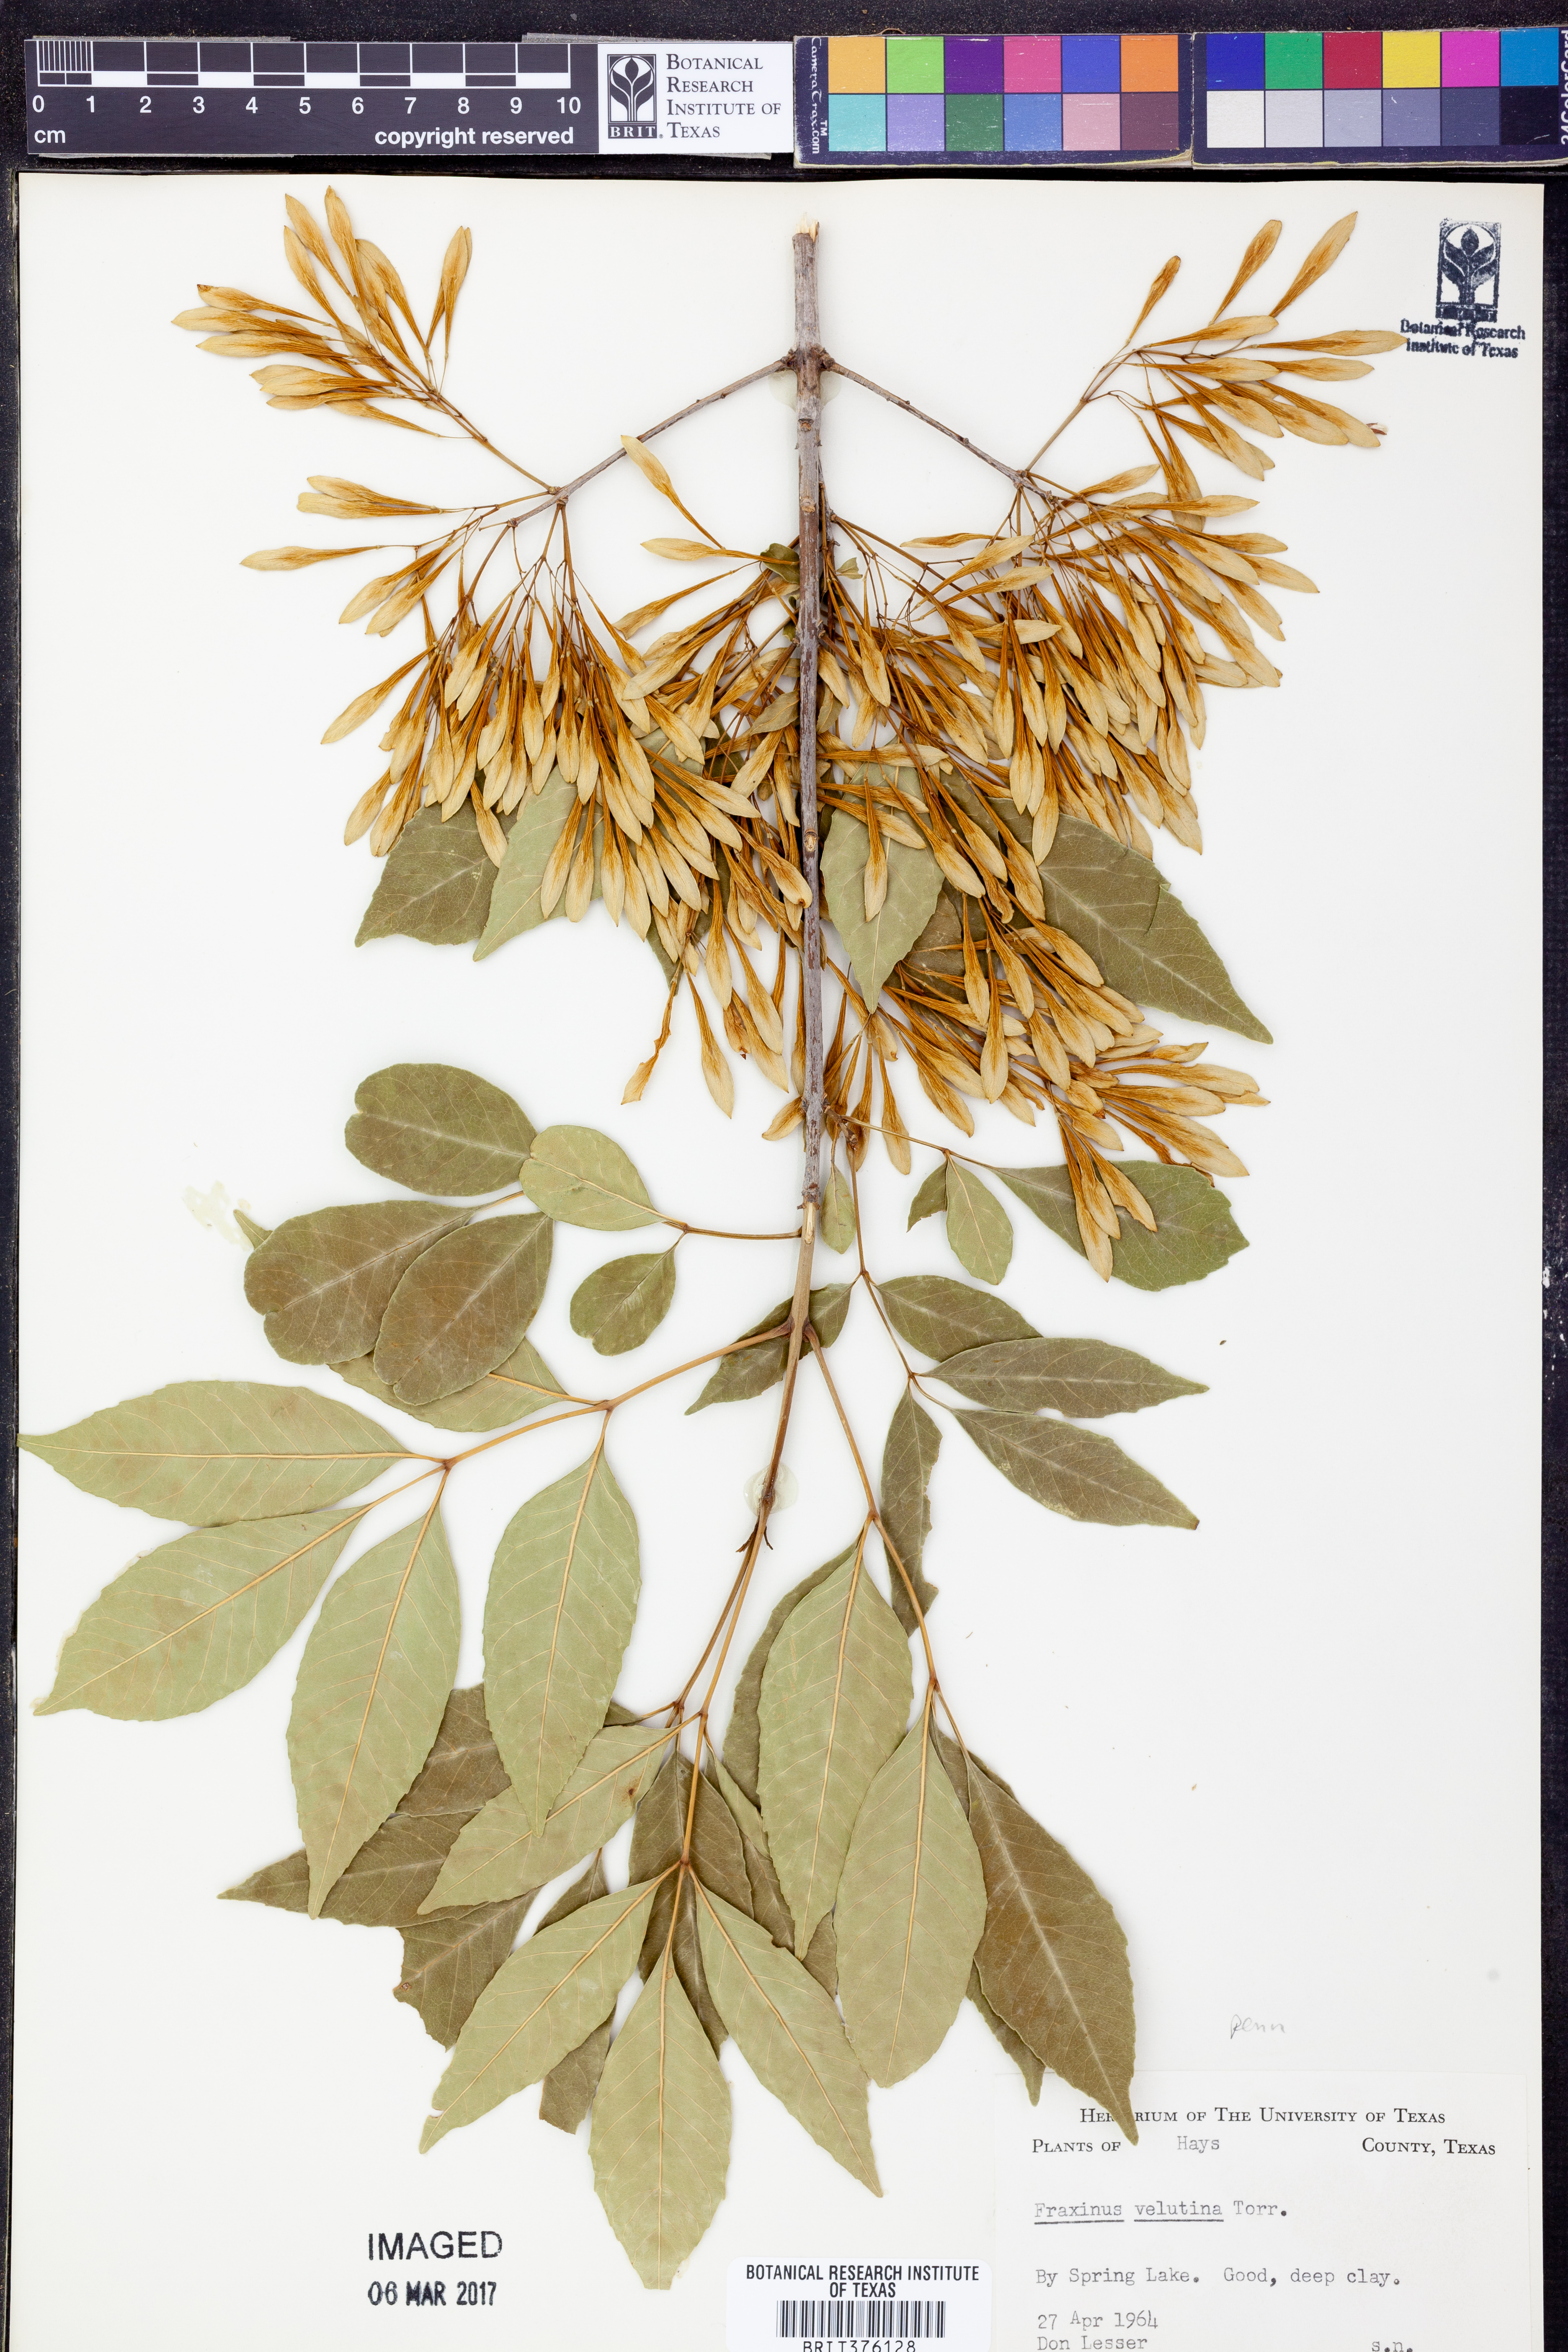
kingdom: Plantae
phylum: Tracheophyta
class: Magnoliopsida
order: Lamiales
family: Oleaceae
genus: Fraxinus
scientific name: Fraxinus velutina
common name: Arizon ash
